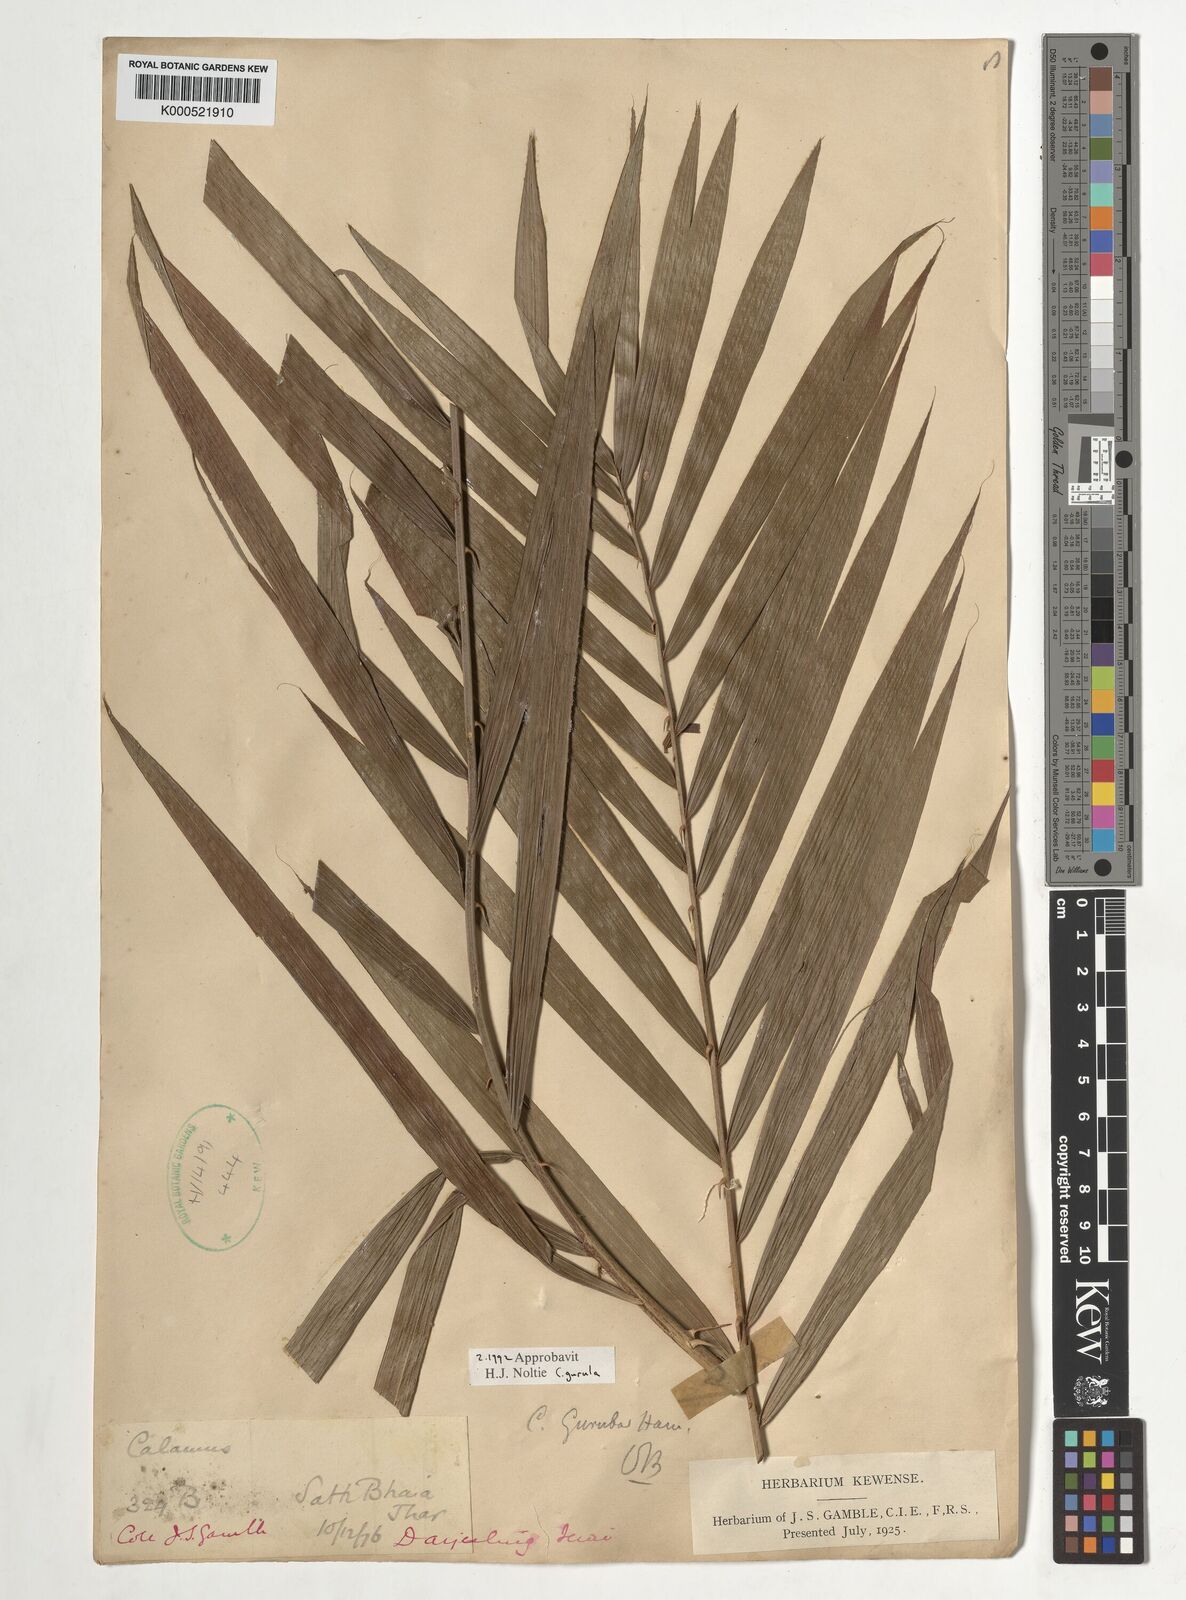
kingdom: Plantae
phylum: Tracheophyta
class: Liliopsida
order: Arecales
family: Arecaceae
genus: Calamus
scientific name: Calamus
